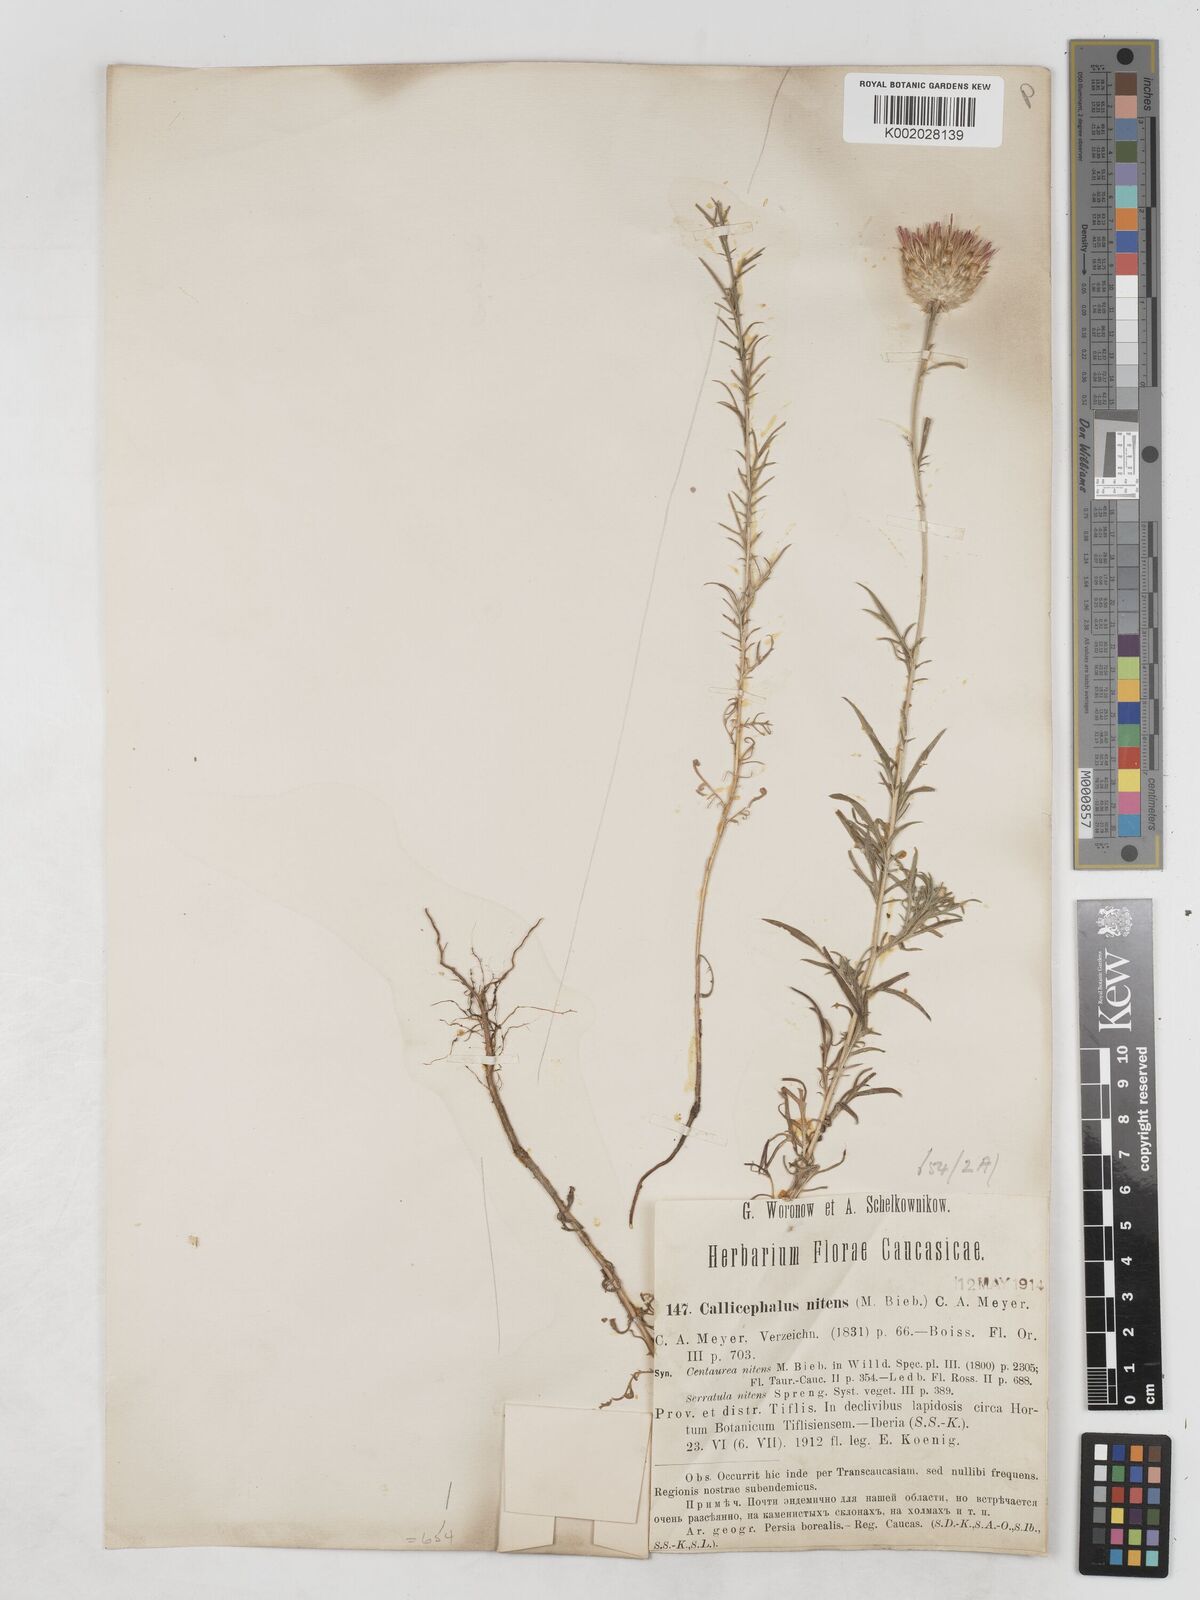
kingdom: Plantae
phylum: Tracheophyta
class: Magnoliopsida
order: Asterales
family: Asteraceae
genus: Callicephalus
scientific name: Callicephalus nitens
